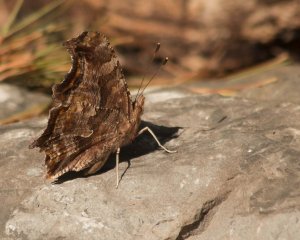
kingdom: Animalia
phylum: Arthropoda
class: Insecta
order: Lepidoptera
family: Nymphalidae
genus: Polygonia
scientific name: Polygonia comma
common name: Eastern Comma
